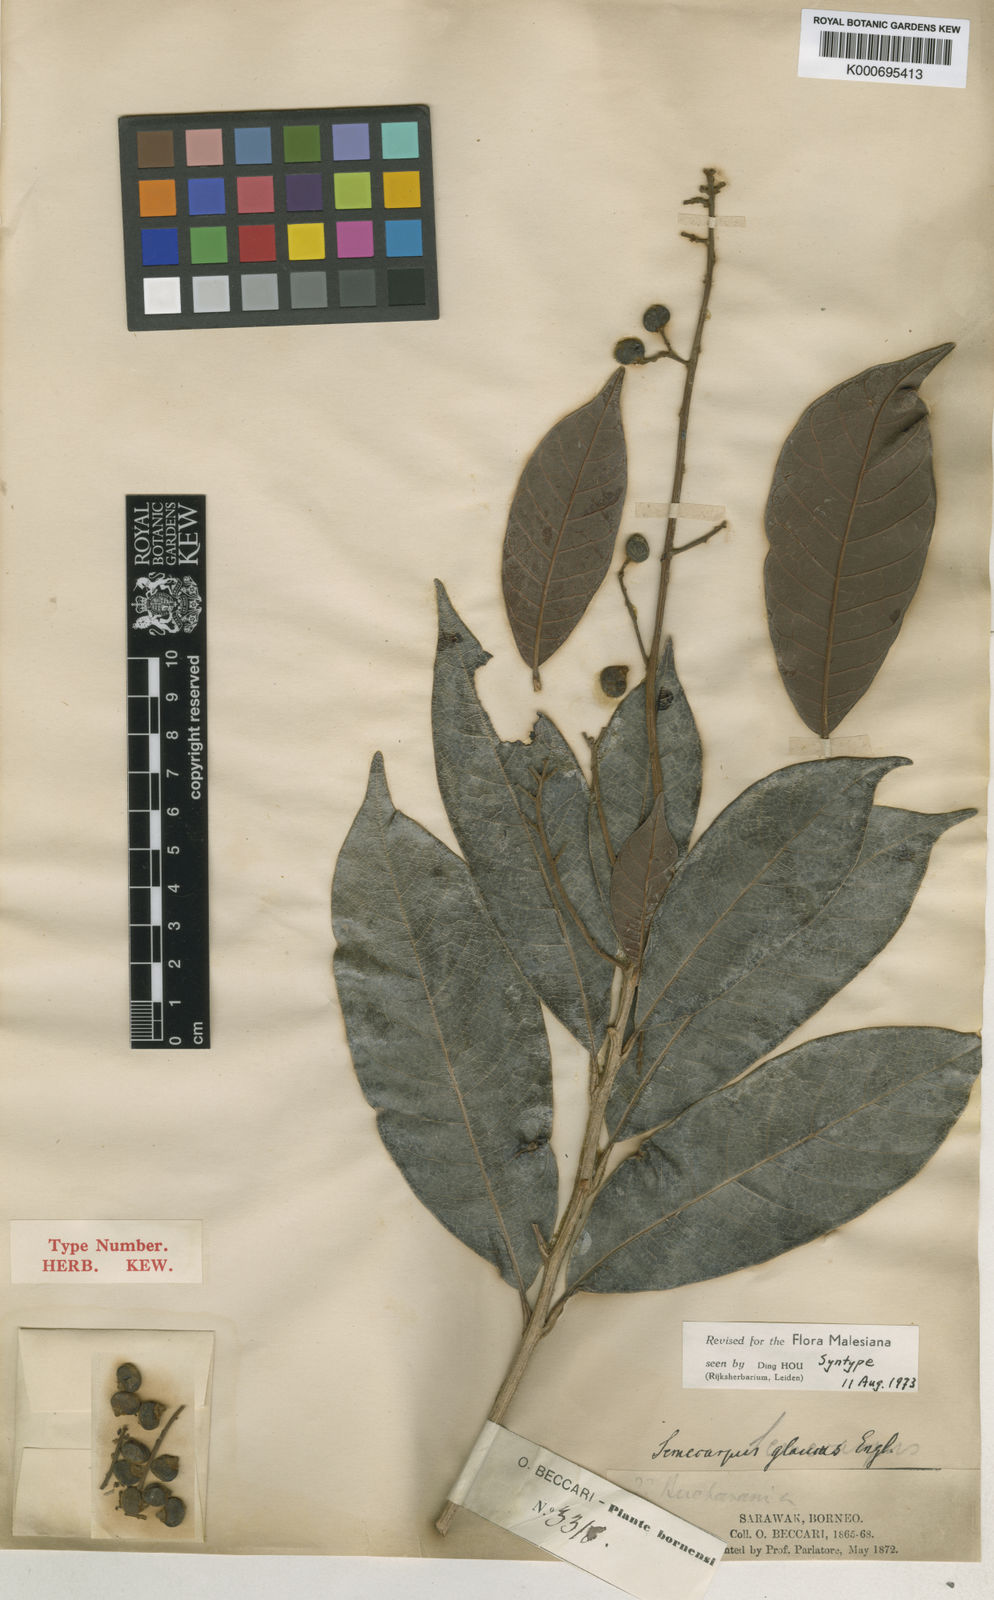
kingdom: Plantae
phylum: Tracheophyta
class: Magnoliopsida
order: Sapindales
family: Anacardiaceae
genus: Semecarpus
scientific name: Semecarpus glaucus
